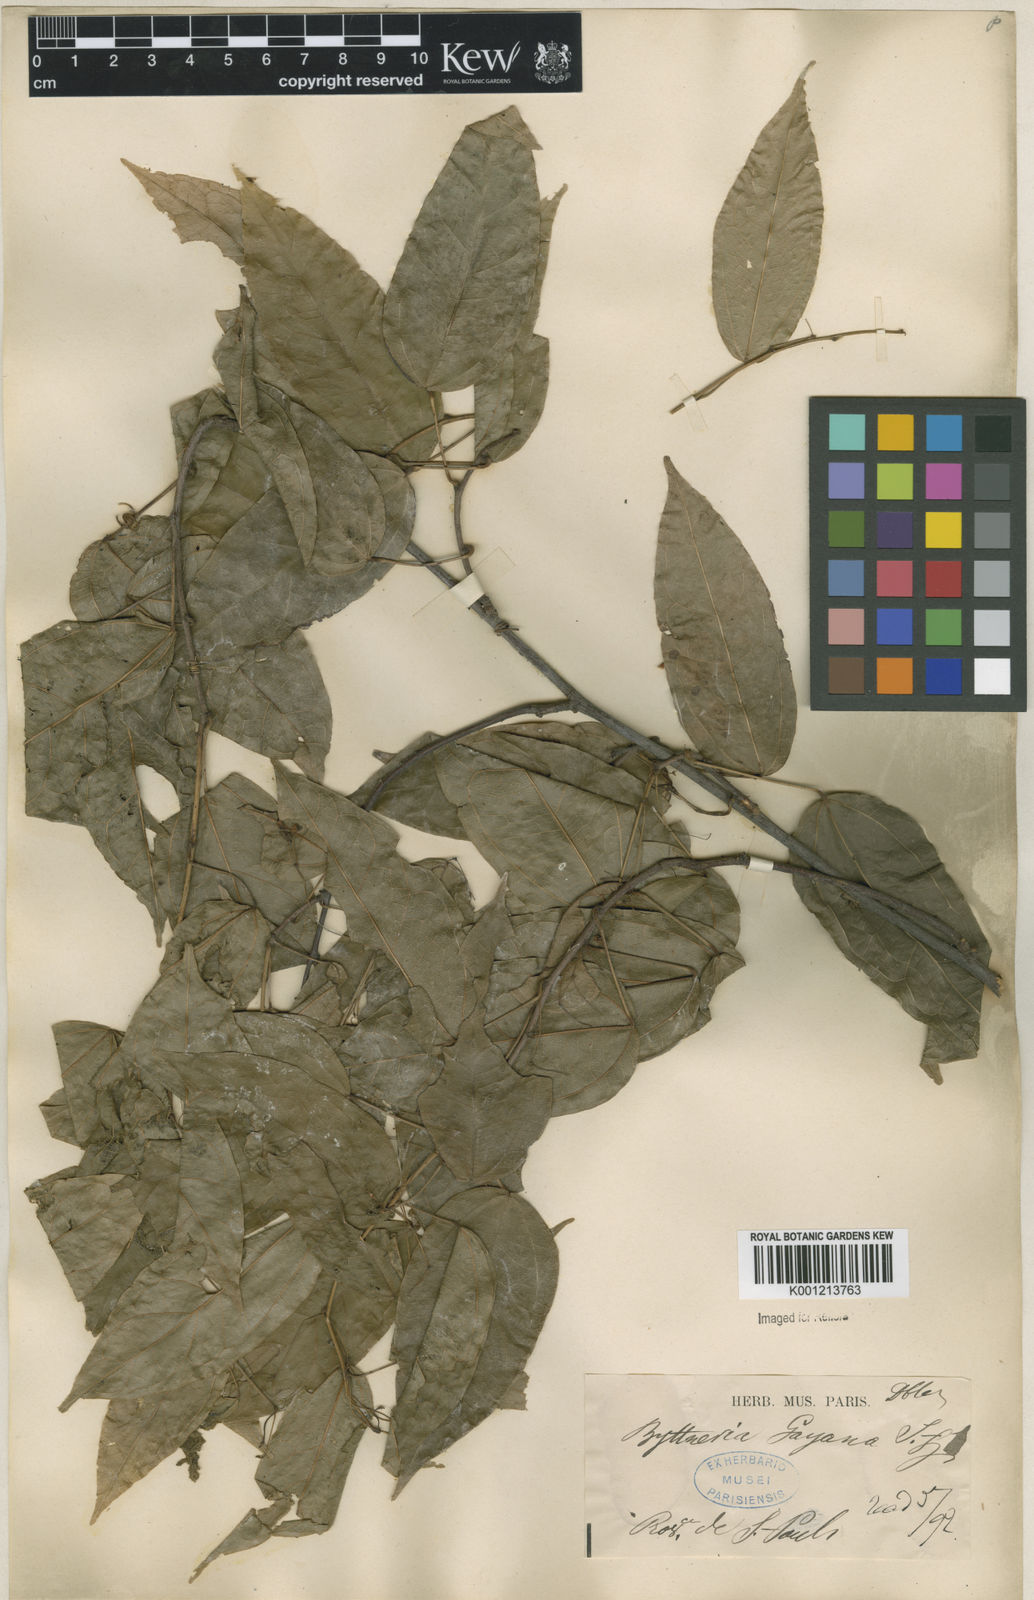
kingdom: Plantae
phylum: Tracheophyta
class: Magnoliopsida
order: Malvales
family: Malvaceae
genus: Byttneria
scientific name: Byttneria gayana
